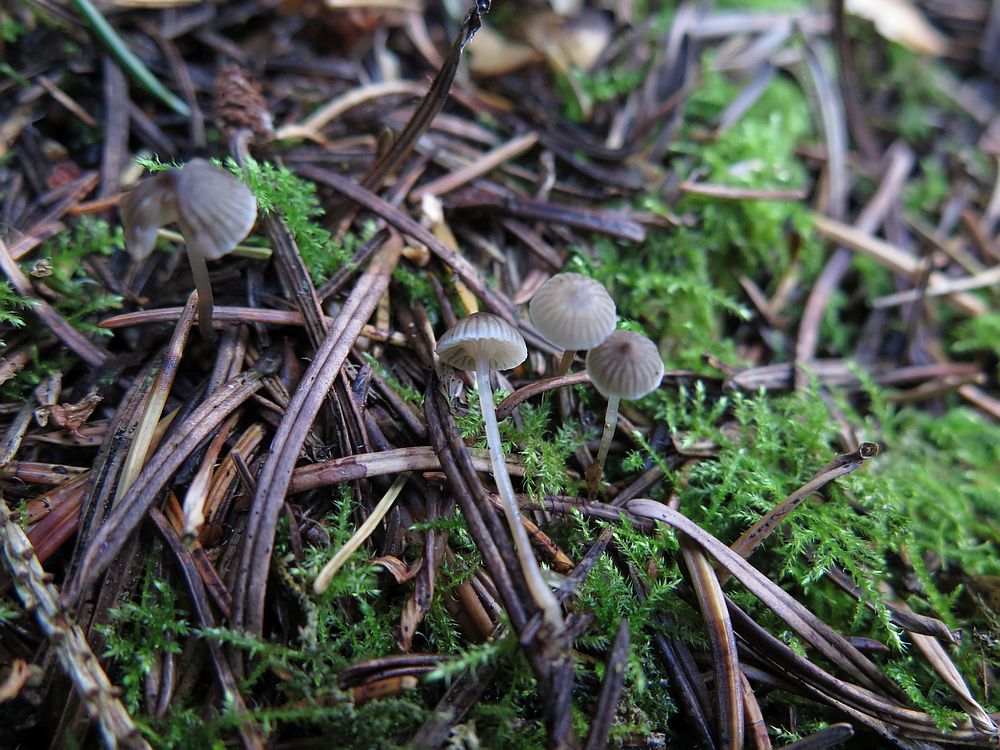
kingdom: Fungi
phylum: Basidiomycota
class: Agaricomycetes
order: Agaricales
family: Mycenaceae
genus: Mycena
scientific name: Mycena vulgaris
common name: klæbrig huesvamp
